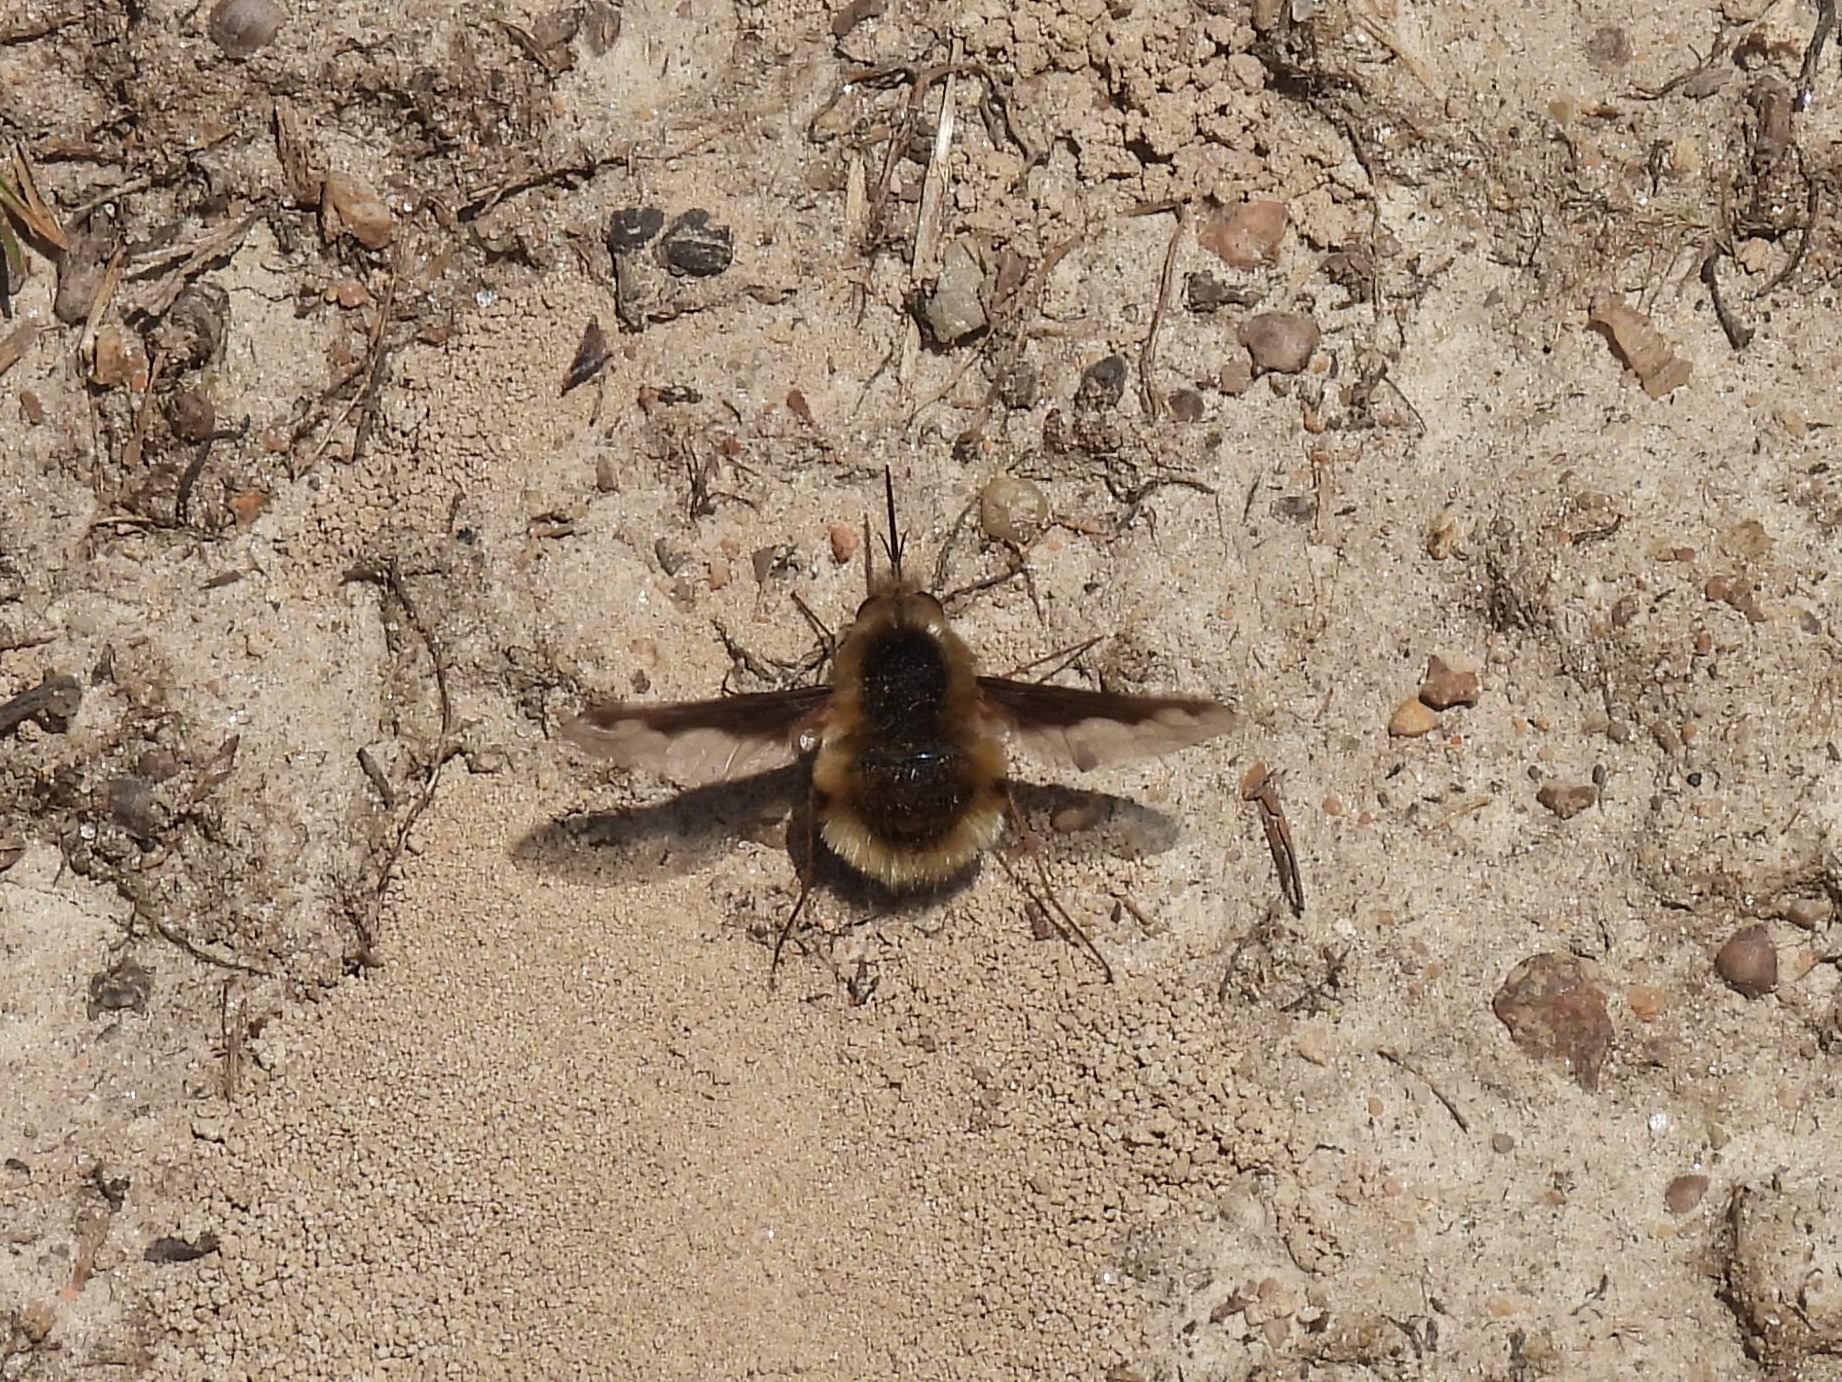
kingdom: Animalia
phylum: Arthropoda
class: Insecta
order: Diptera
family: Bombyliidae
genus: Bombylius
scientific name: Bombylius major
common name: Stor humleflue
